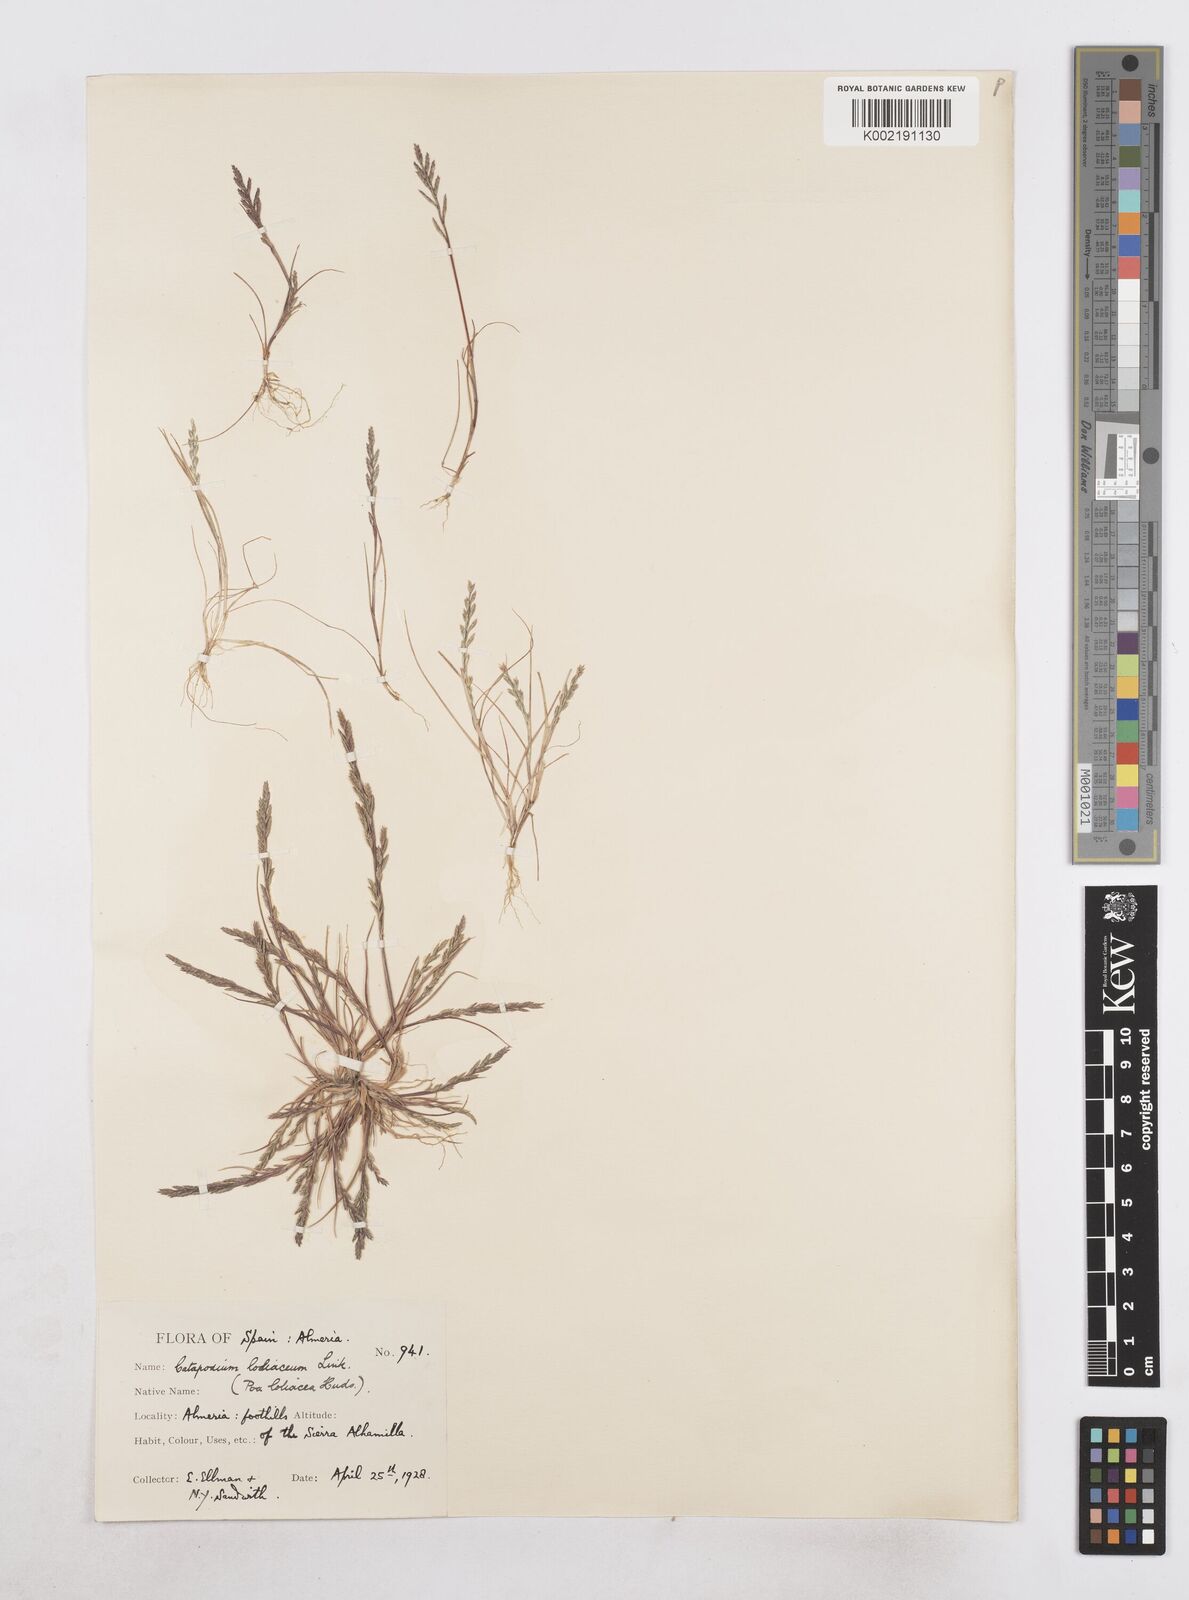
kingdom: Plantae
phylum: Tracheophyta
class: Liliopsida
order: Poales
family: Poaceae
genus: Catapodium
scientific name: Catapodium marinum
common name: Sea fern-grass
